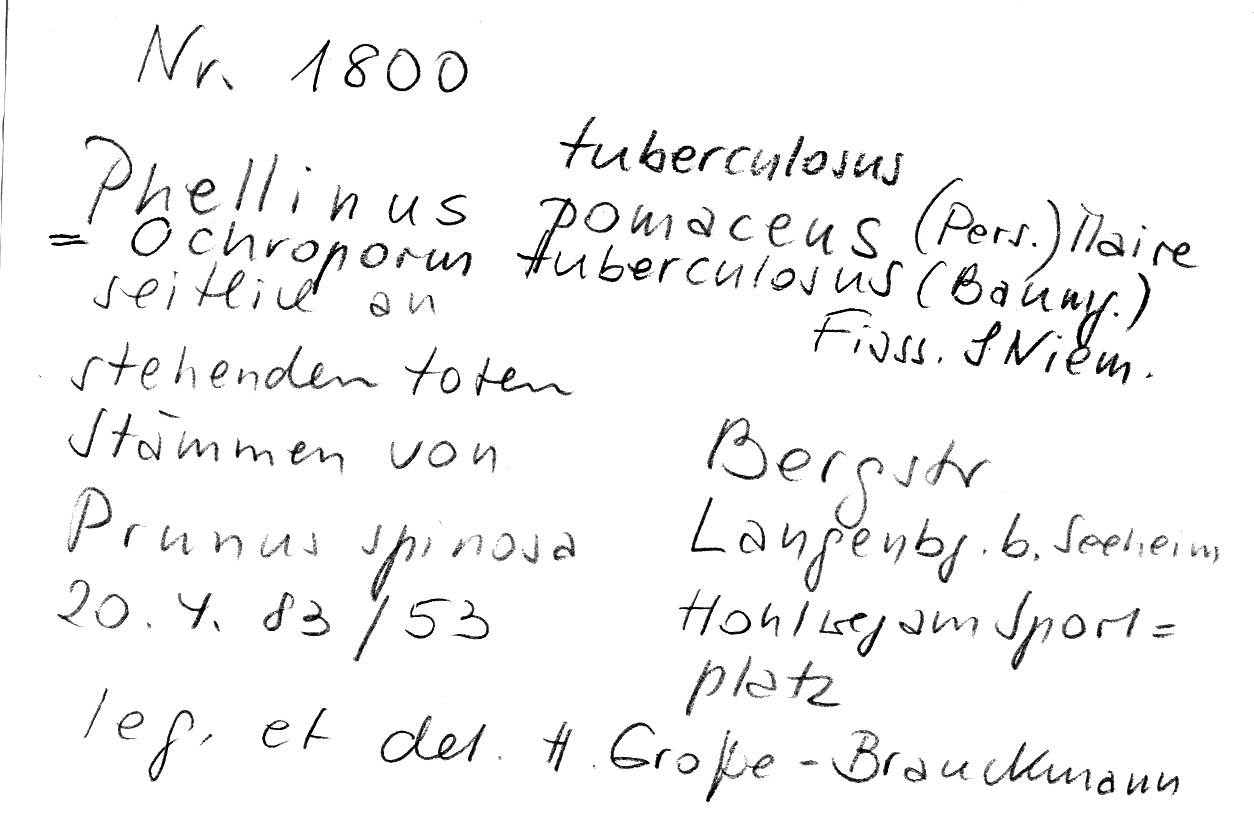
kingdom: Fungi
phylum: Basidiomycota
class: Agaricomycetes
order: Hymenochaetales
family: Hymenochaetaceae
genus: Phellinus
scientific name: Phellinus pomaceus
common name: Cushion bracket
